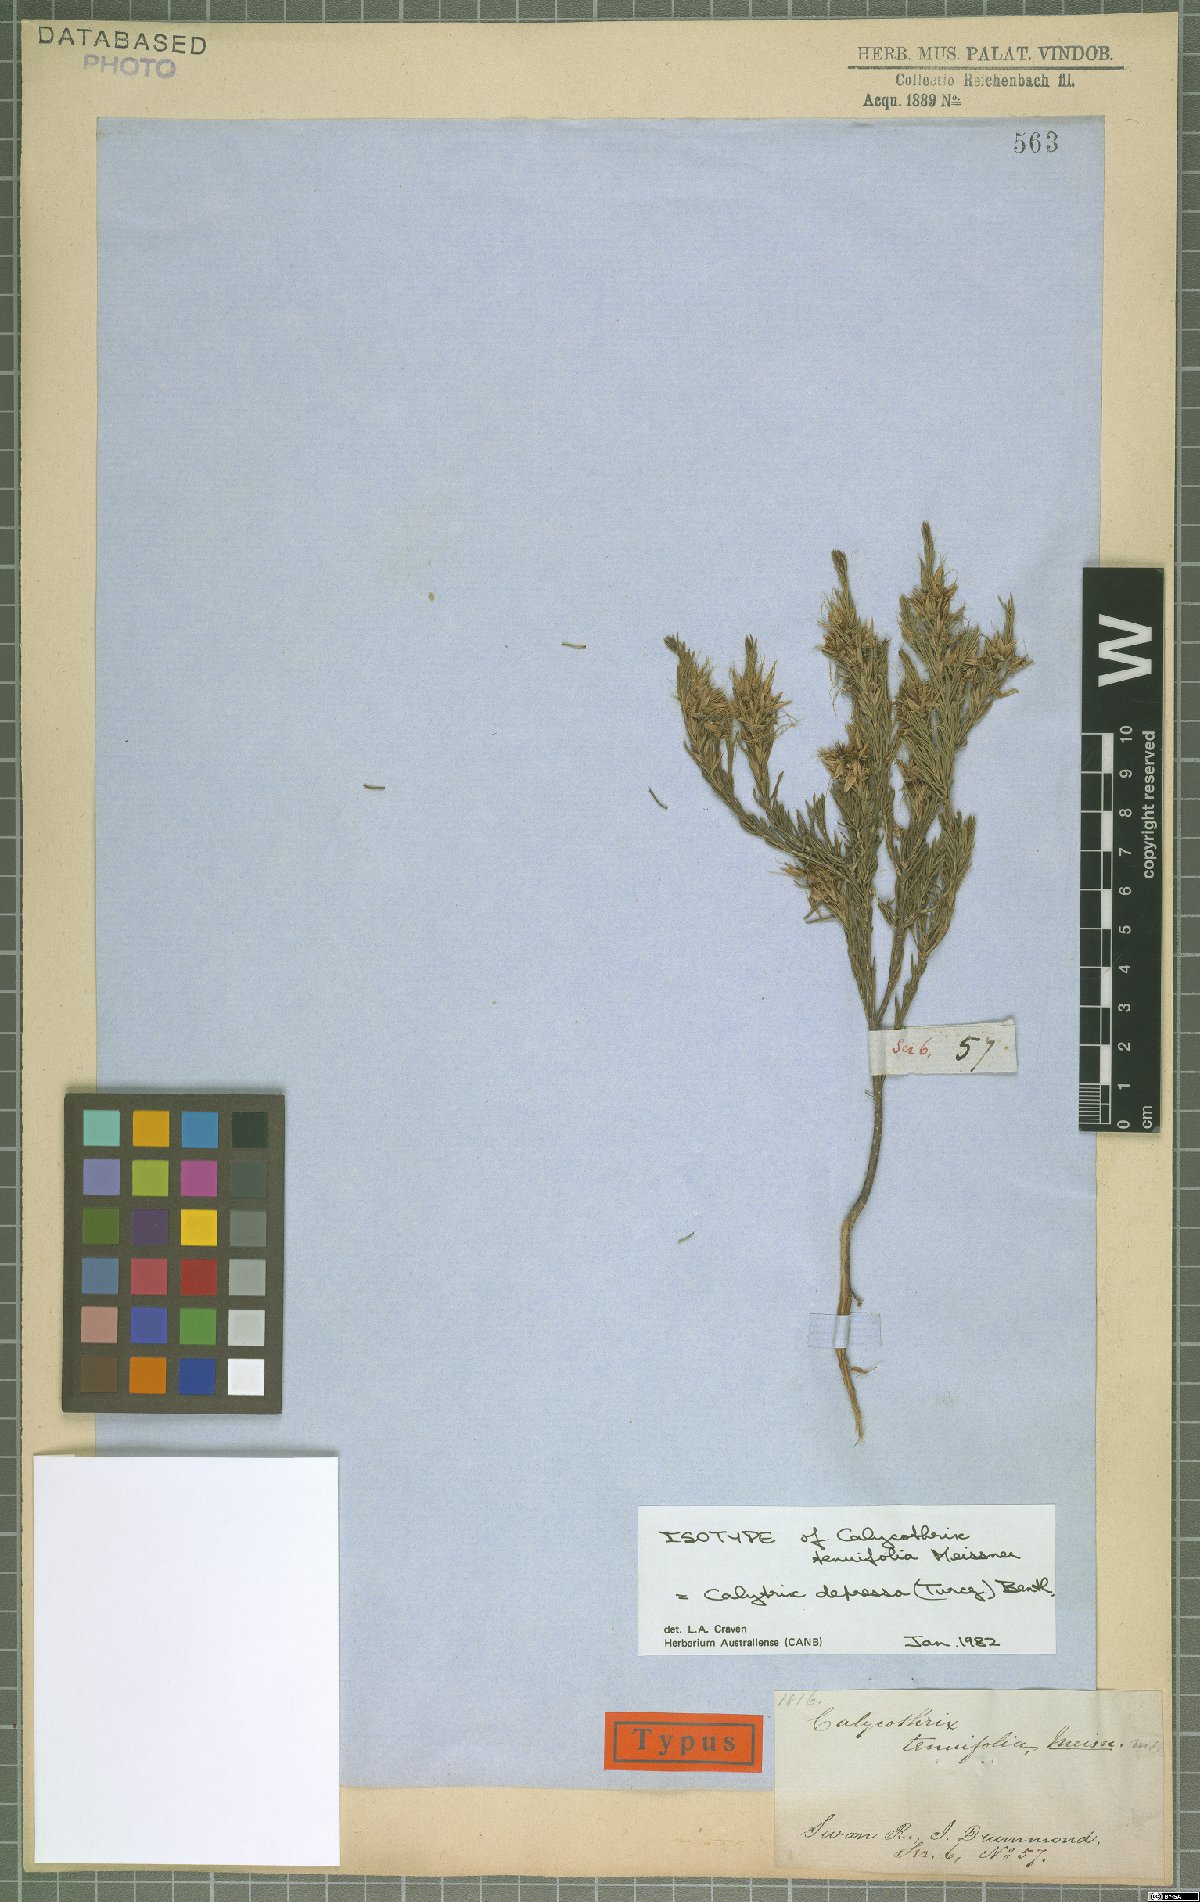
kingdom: Plantae
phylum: Tracheophyta
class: Magnoliopsida
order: Myrtales
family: Myrtaceae
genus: Calytrix
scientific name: Calytrix depressa
